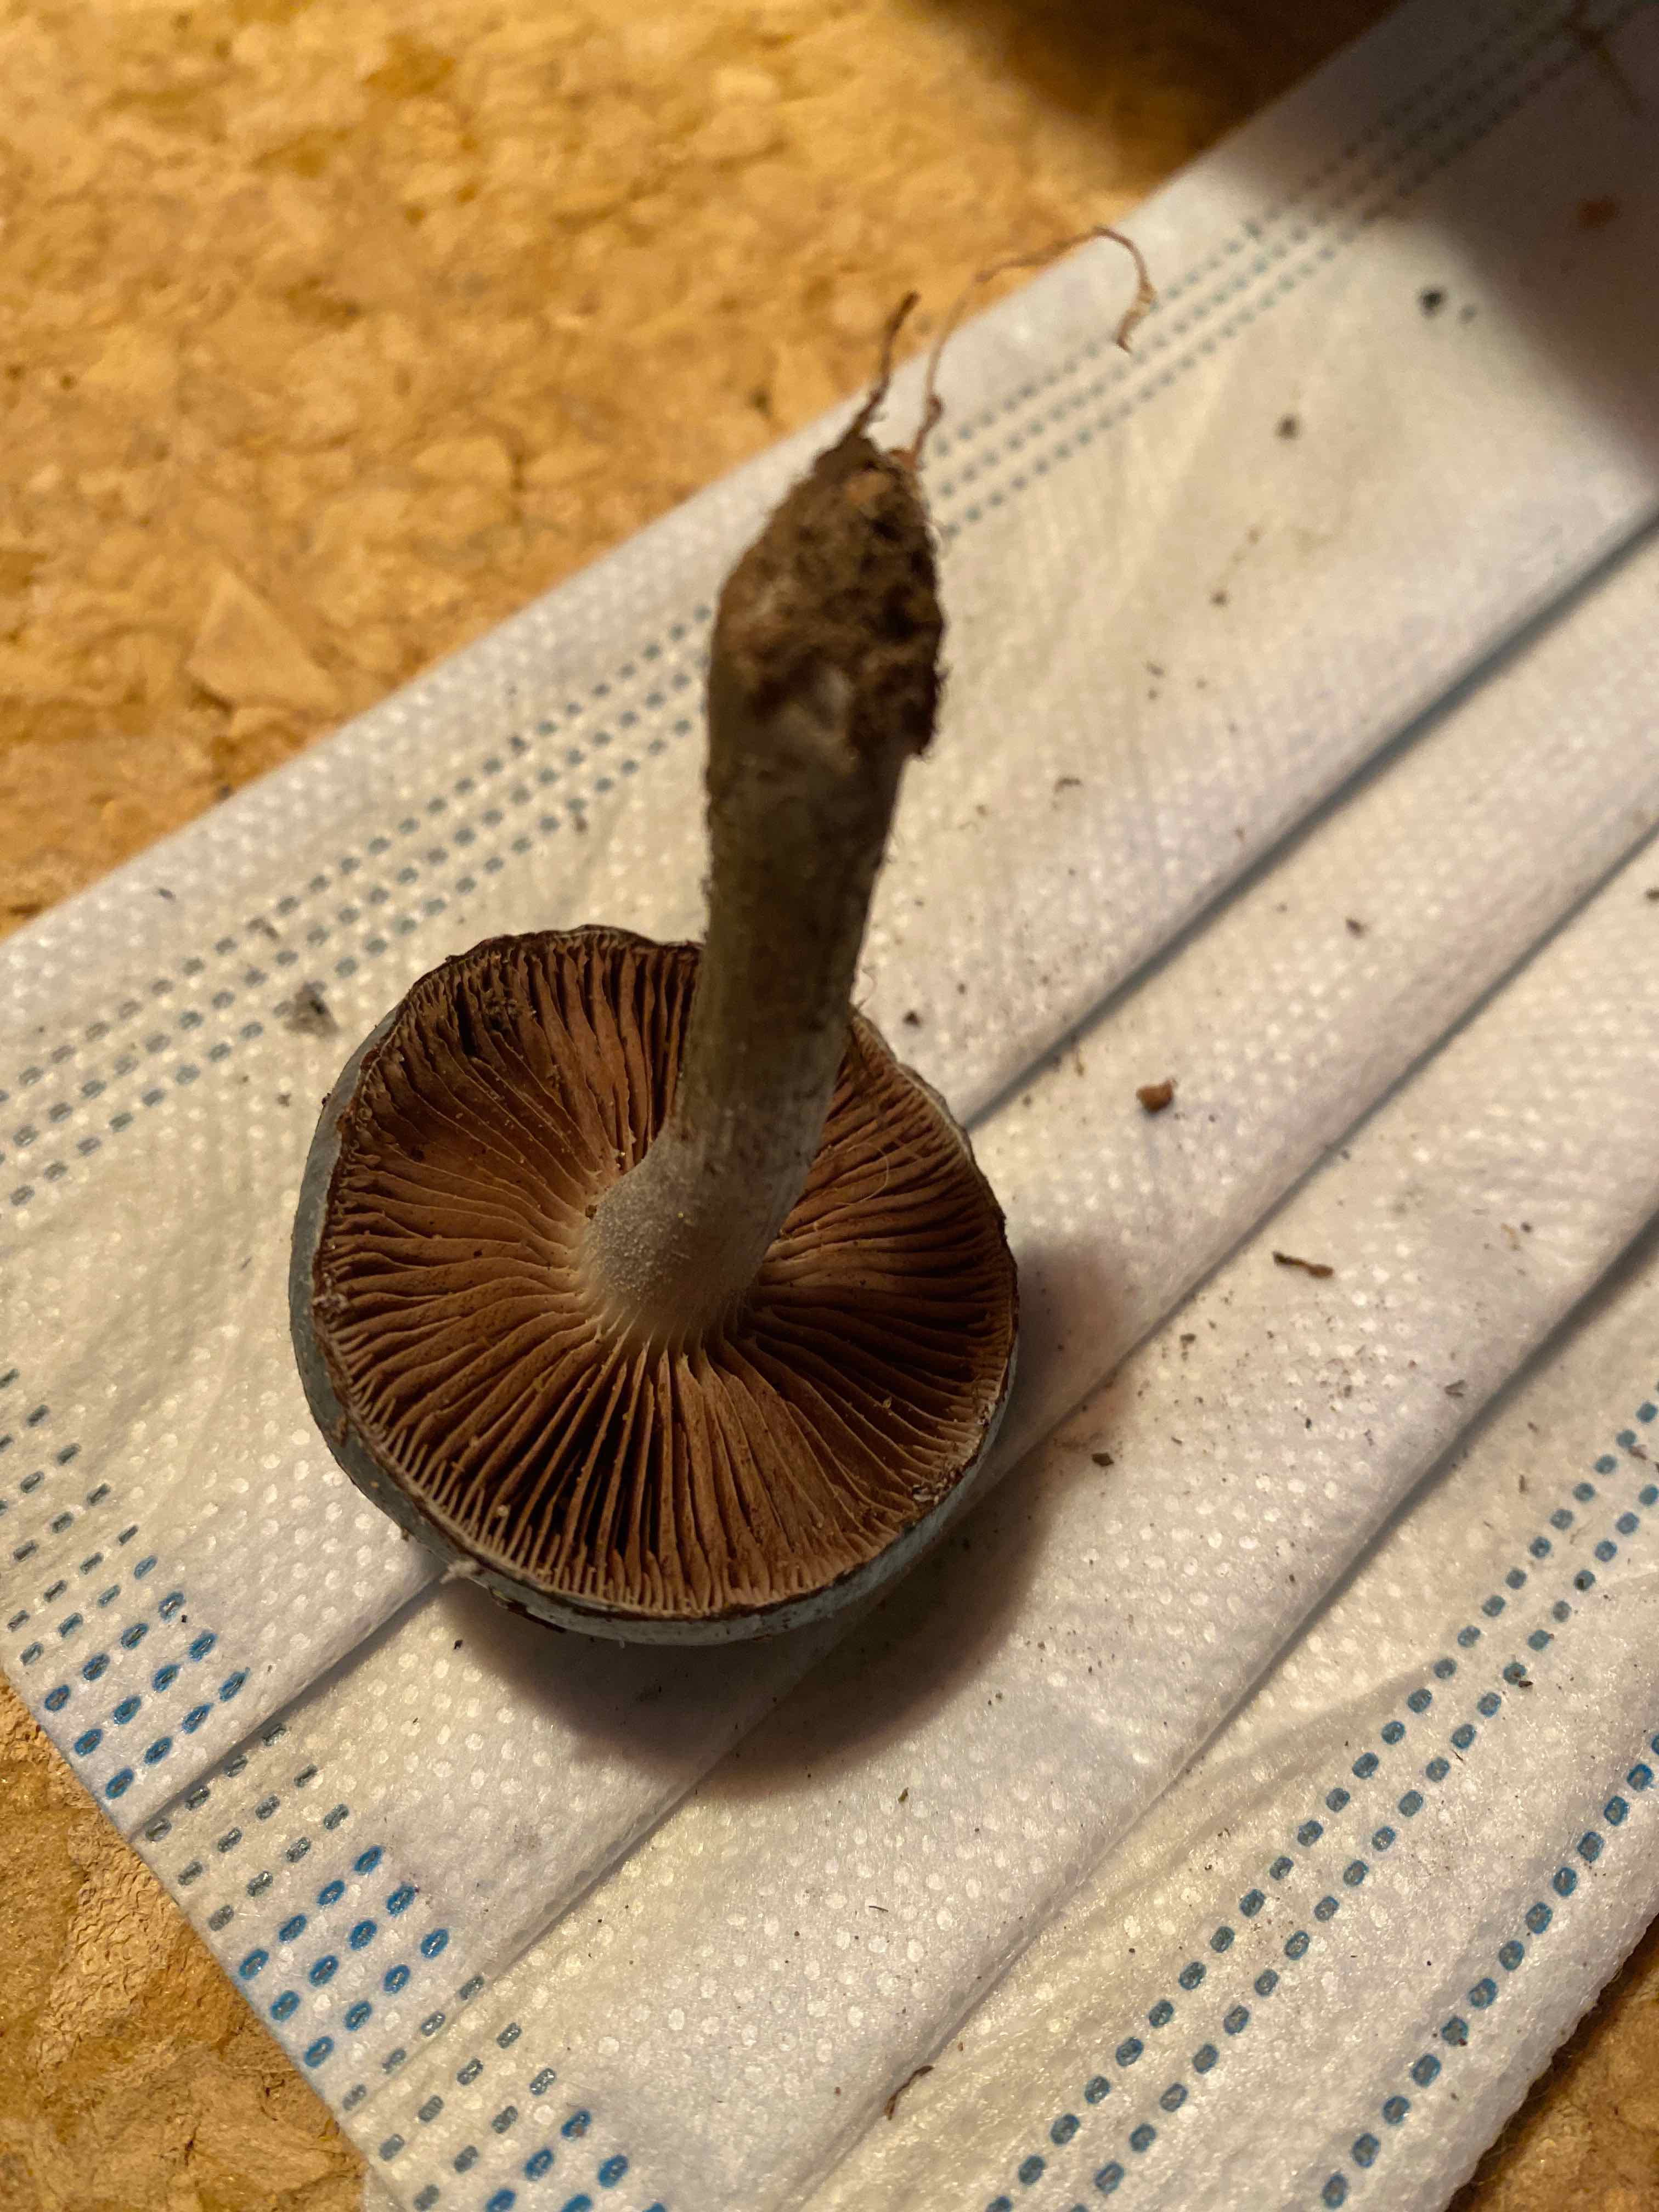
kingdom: Fungi
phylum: Basidiomycota
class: Agaricomycetes
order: Agaricales
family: Strophariaceae
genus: Stropharia
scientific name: Stropharia cyanea
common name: blågrøn bredblad
